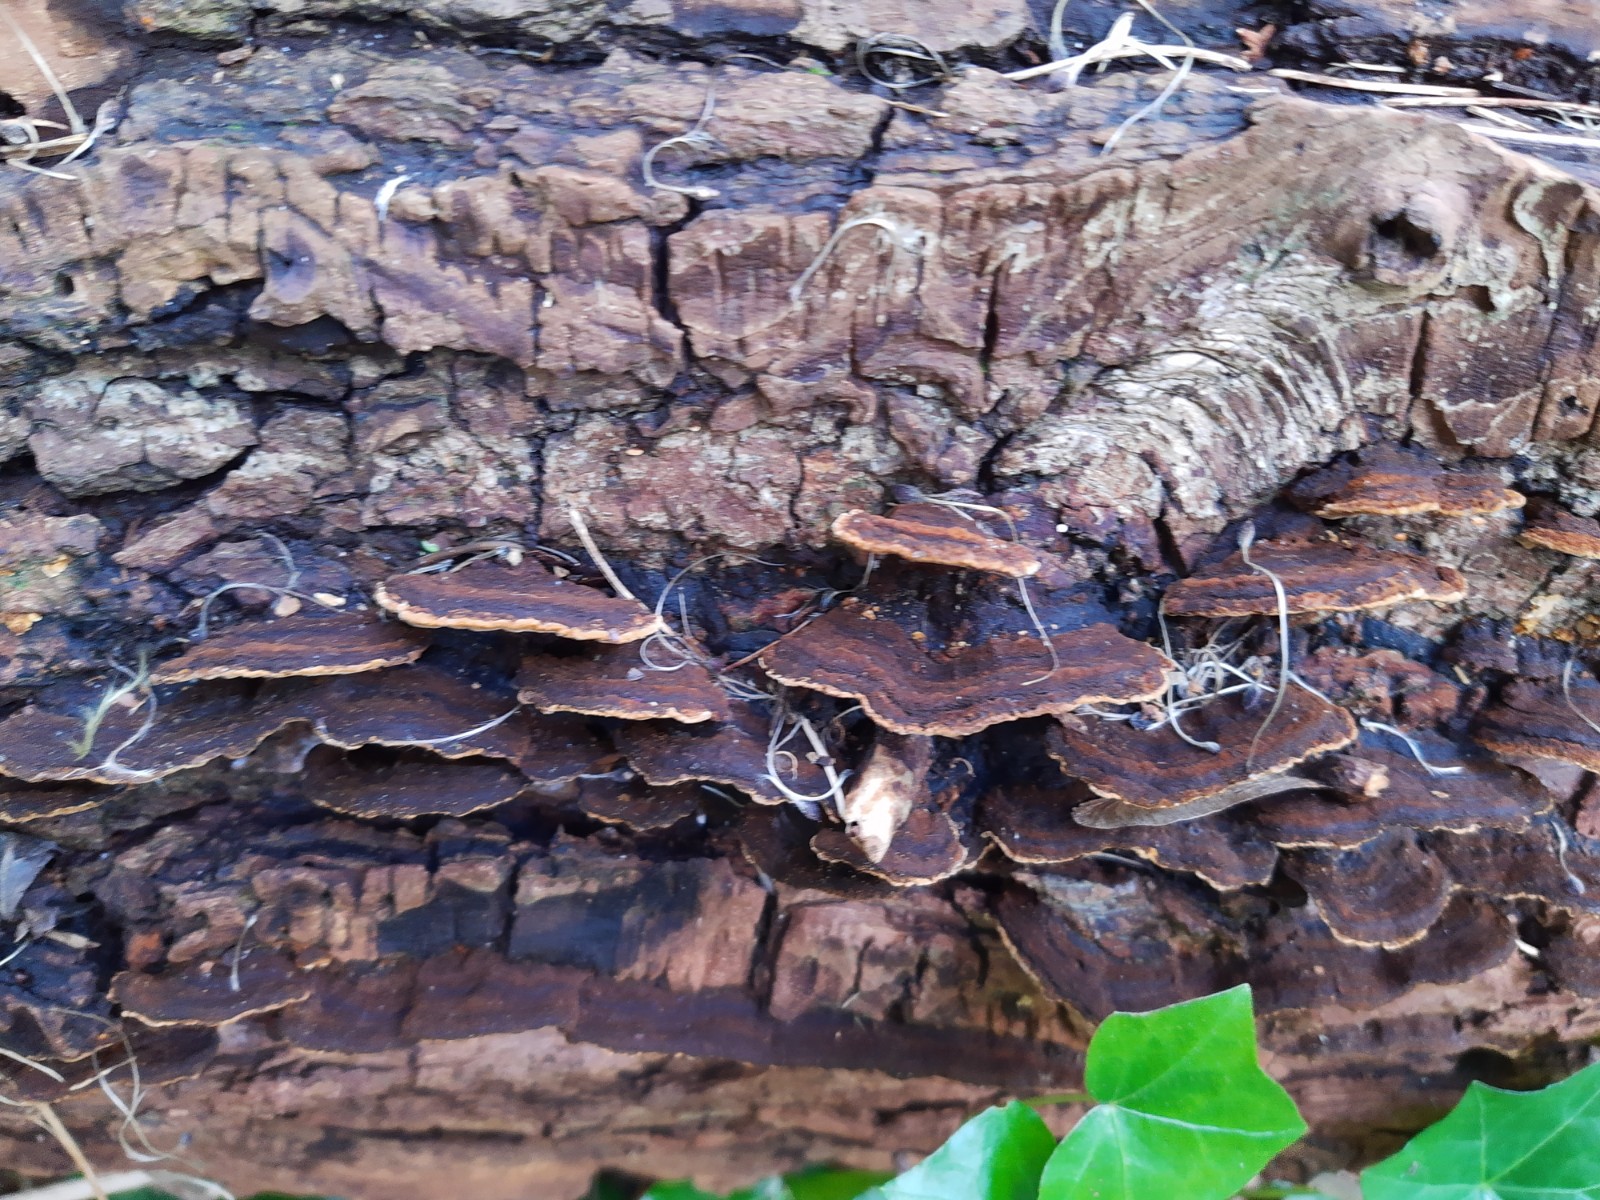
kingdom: Fungi
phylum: Basidiomycota
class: Agaricomycetes
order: Hymenochaetales
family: Hymenochaetaceae
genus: Phellinopsis
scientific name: Phellinopsis conchata
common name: pile-ildporesvamp
